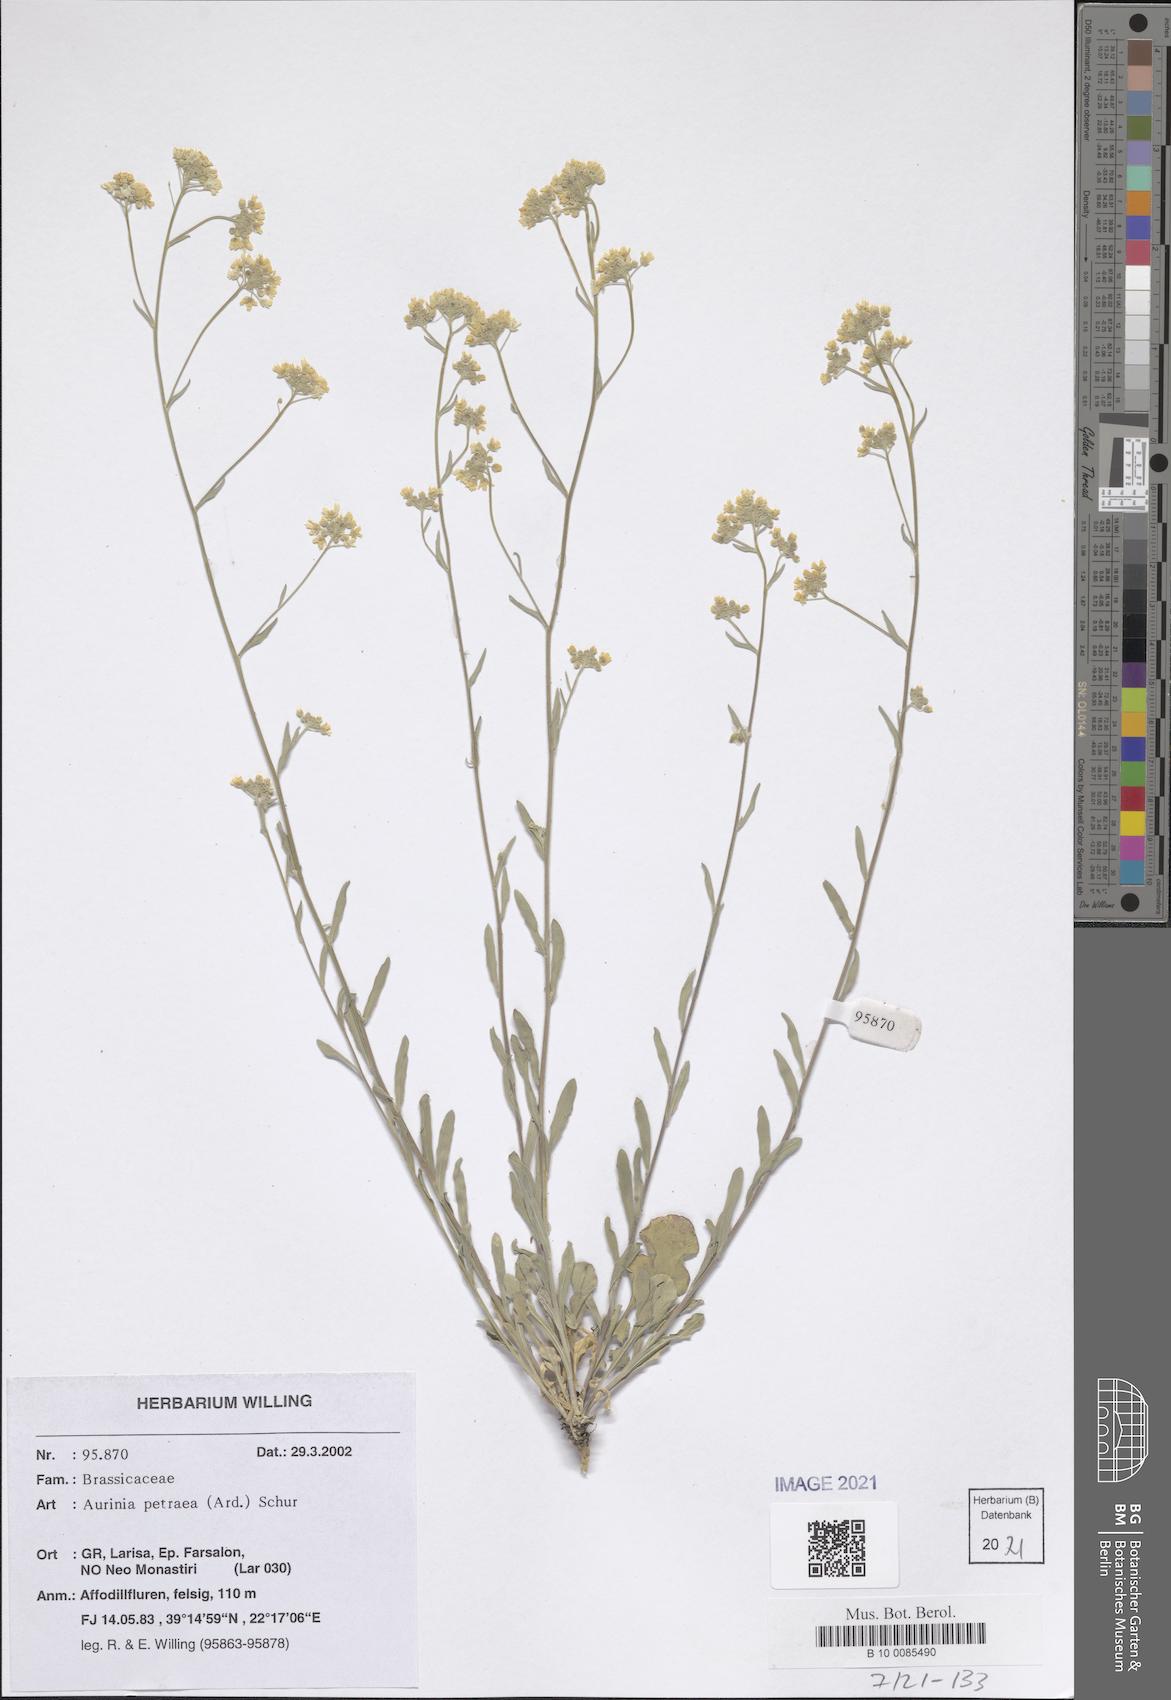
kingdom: Plantae
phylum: Tracheophyta
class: Magnoliopsida
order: Brassicales
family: Brassicaceae
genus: Aurinia
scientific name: Aurinia petraea
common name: Goldentuft
